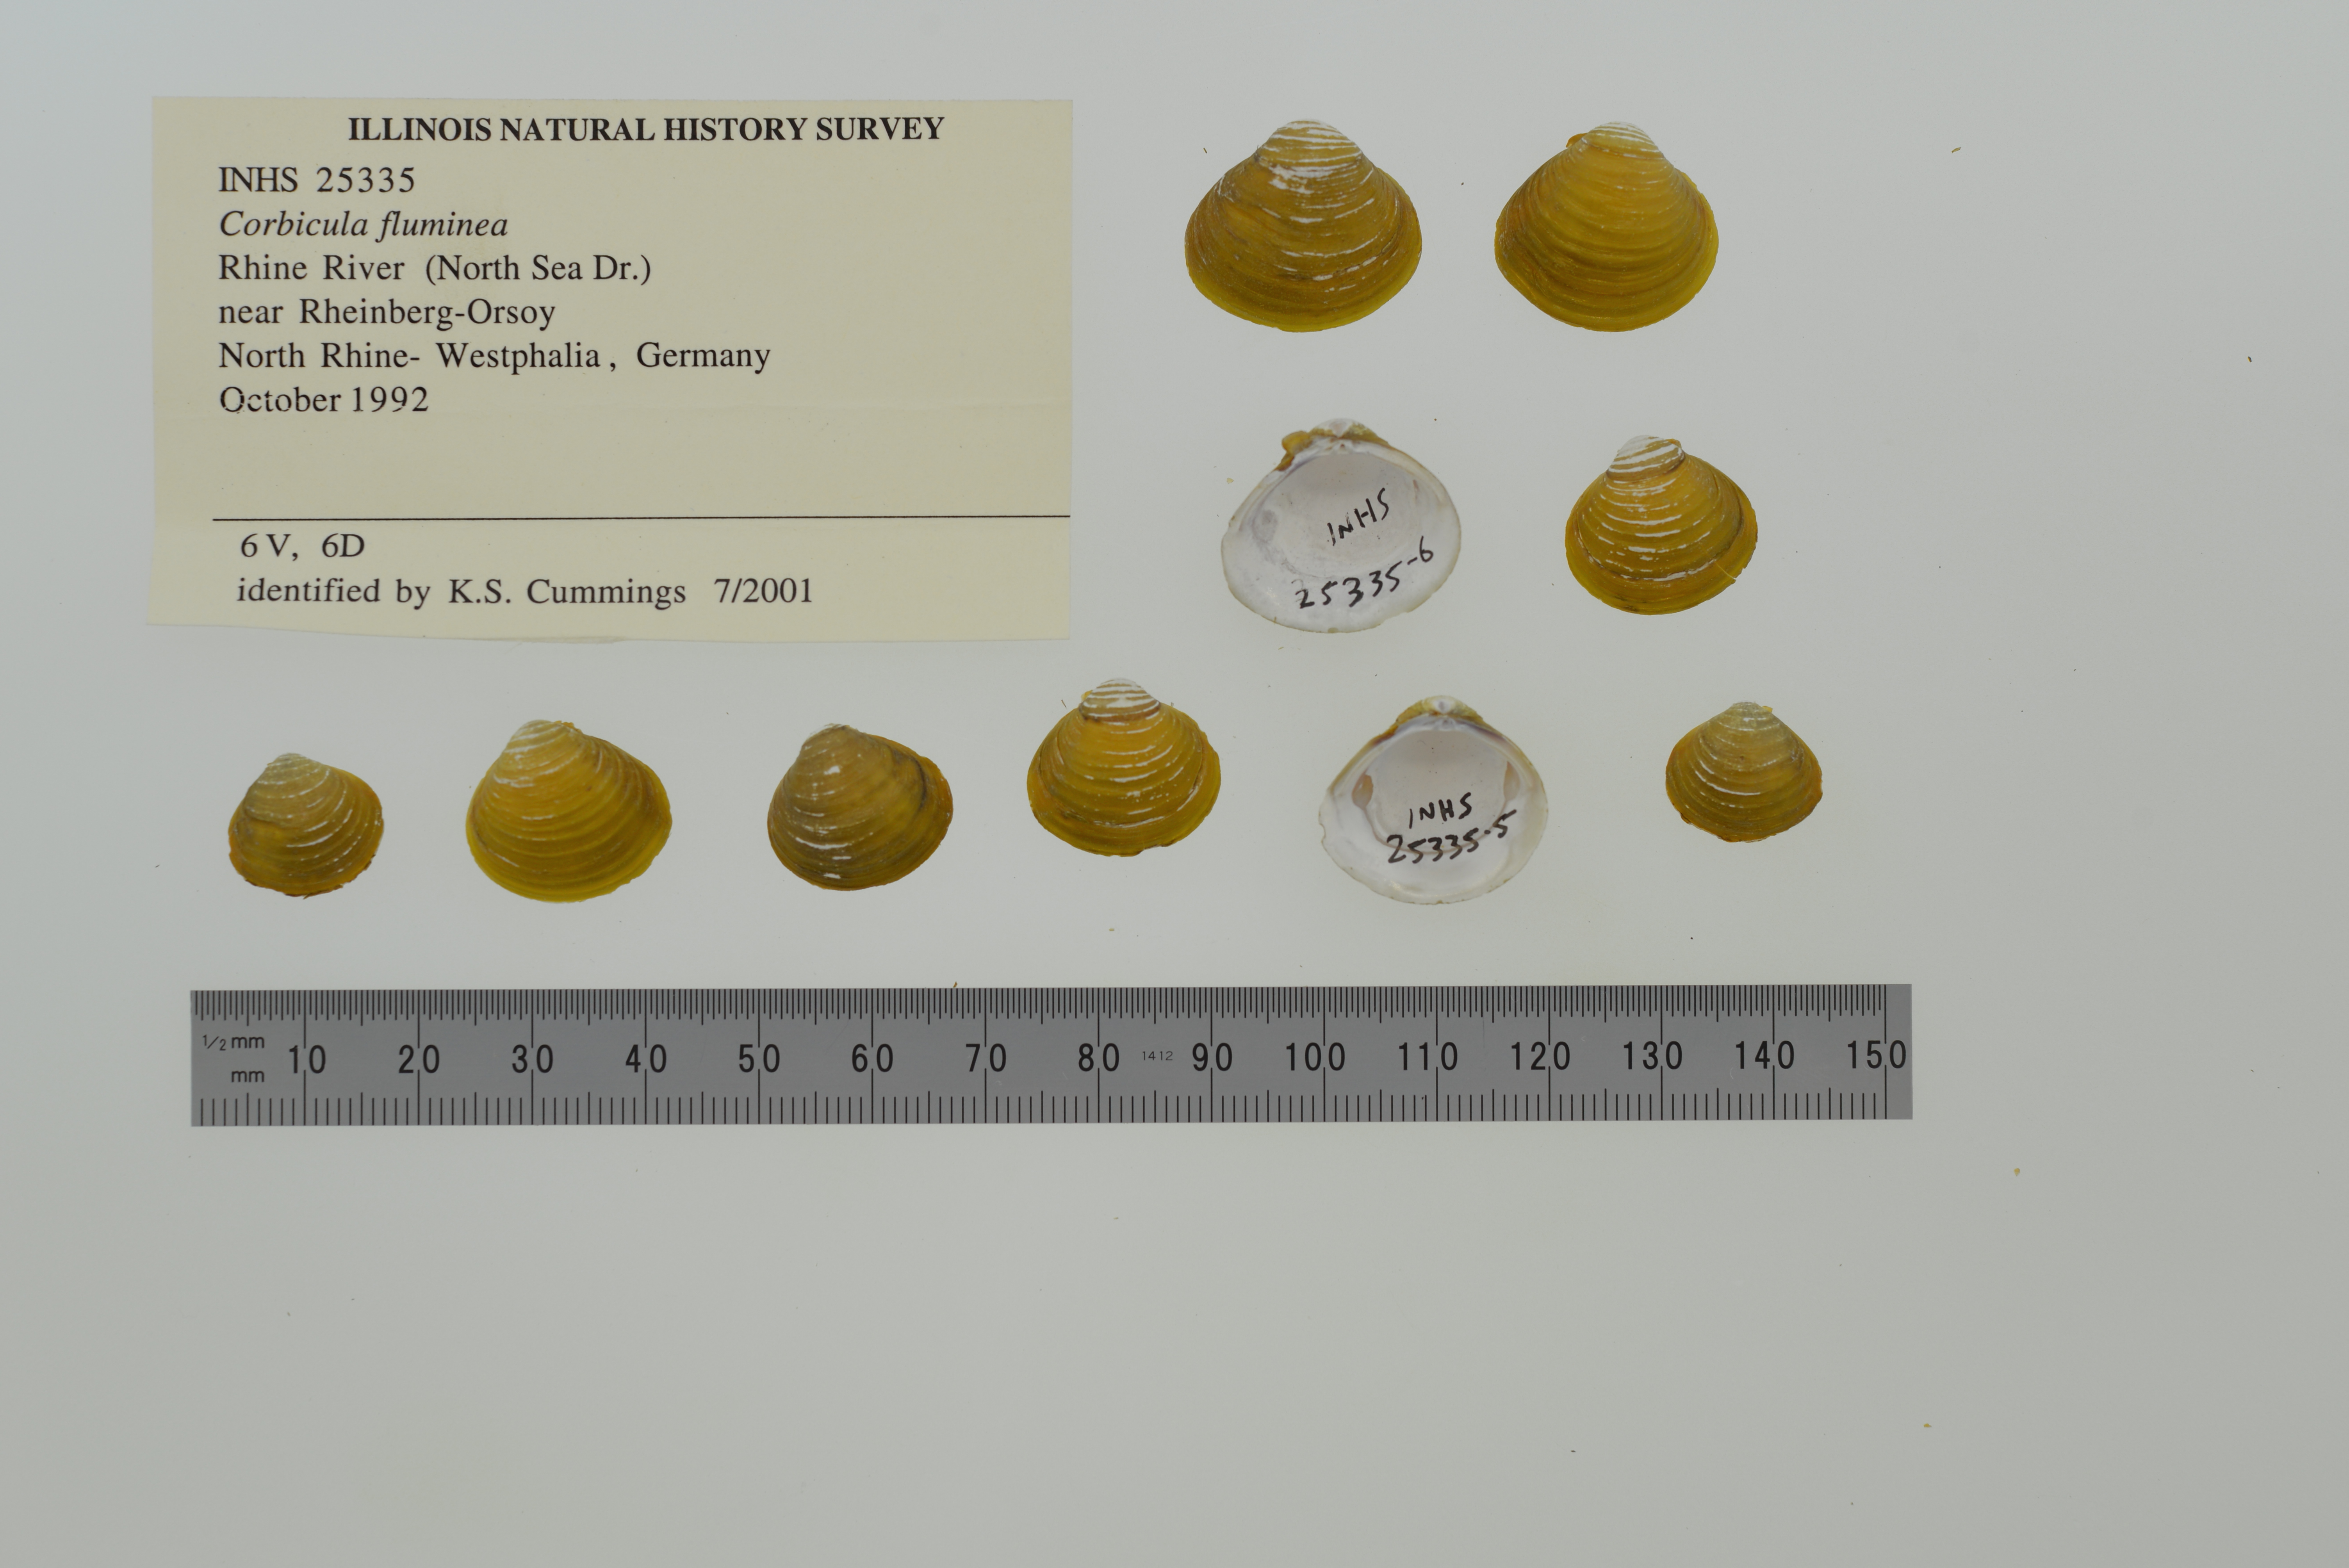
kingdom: Animalia
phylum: Mollusca
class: Bivalvia
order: Venerida
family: Cyrenidae
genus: Corbicula
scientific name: Corbicula fluminea
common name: Asian clam
